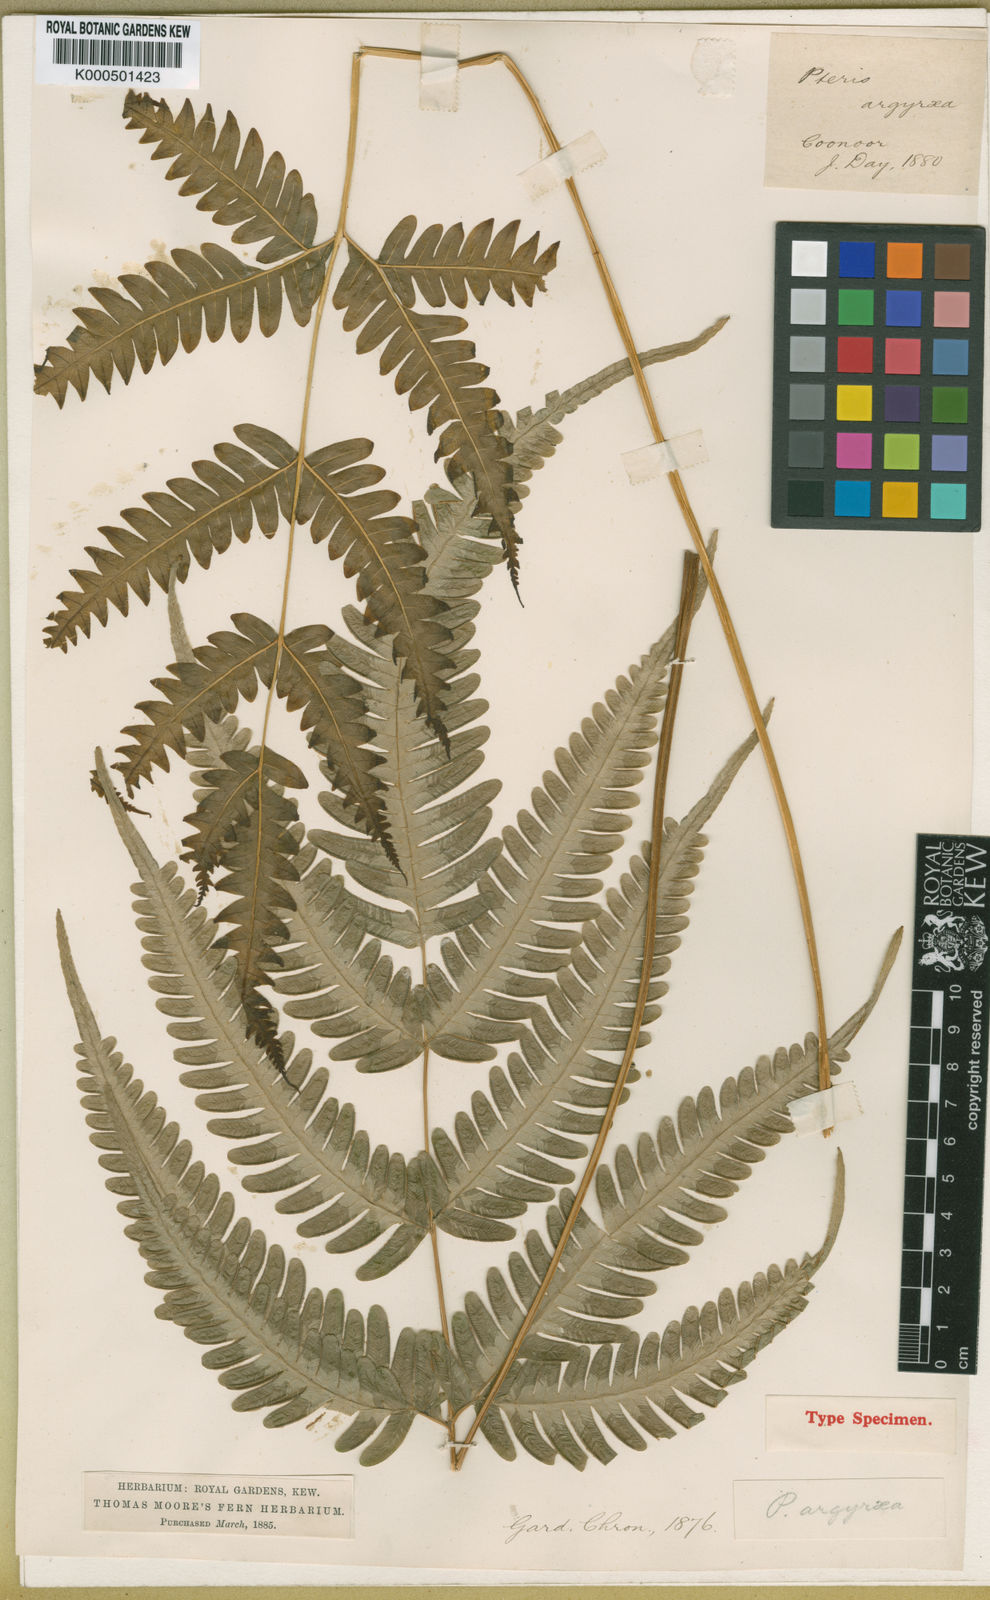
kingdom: Plantae
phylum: Tracheophyta
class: Polypodiopsida
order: Polypodiales
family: Pteridaceae
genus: Pteris
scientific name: Pteris cretica
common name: Ribbon fern
